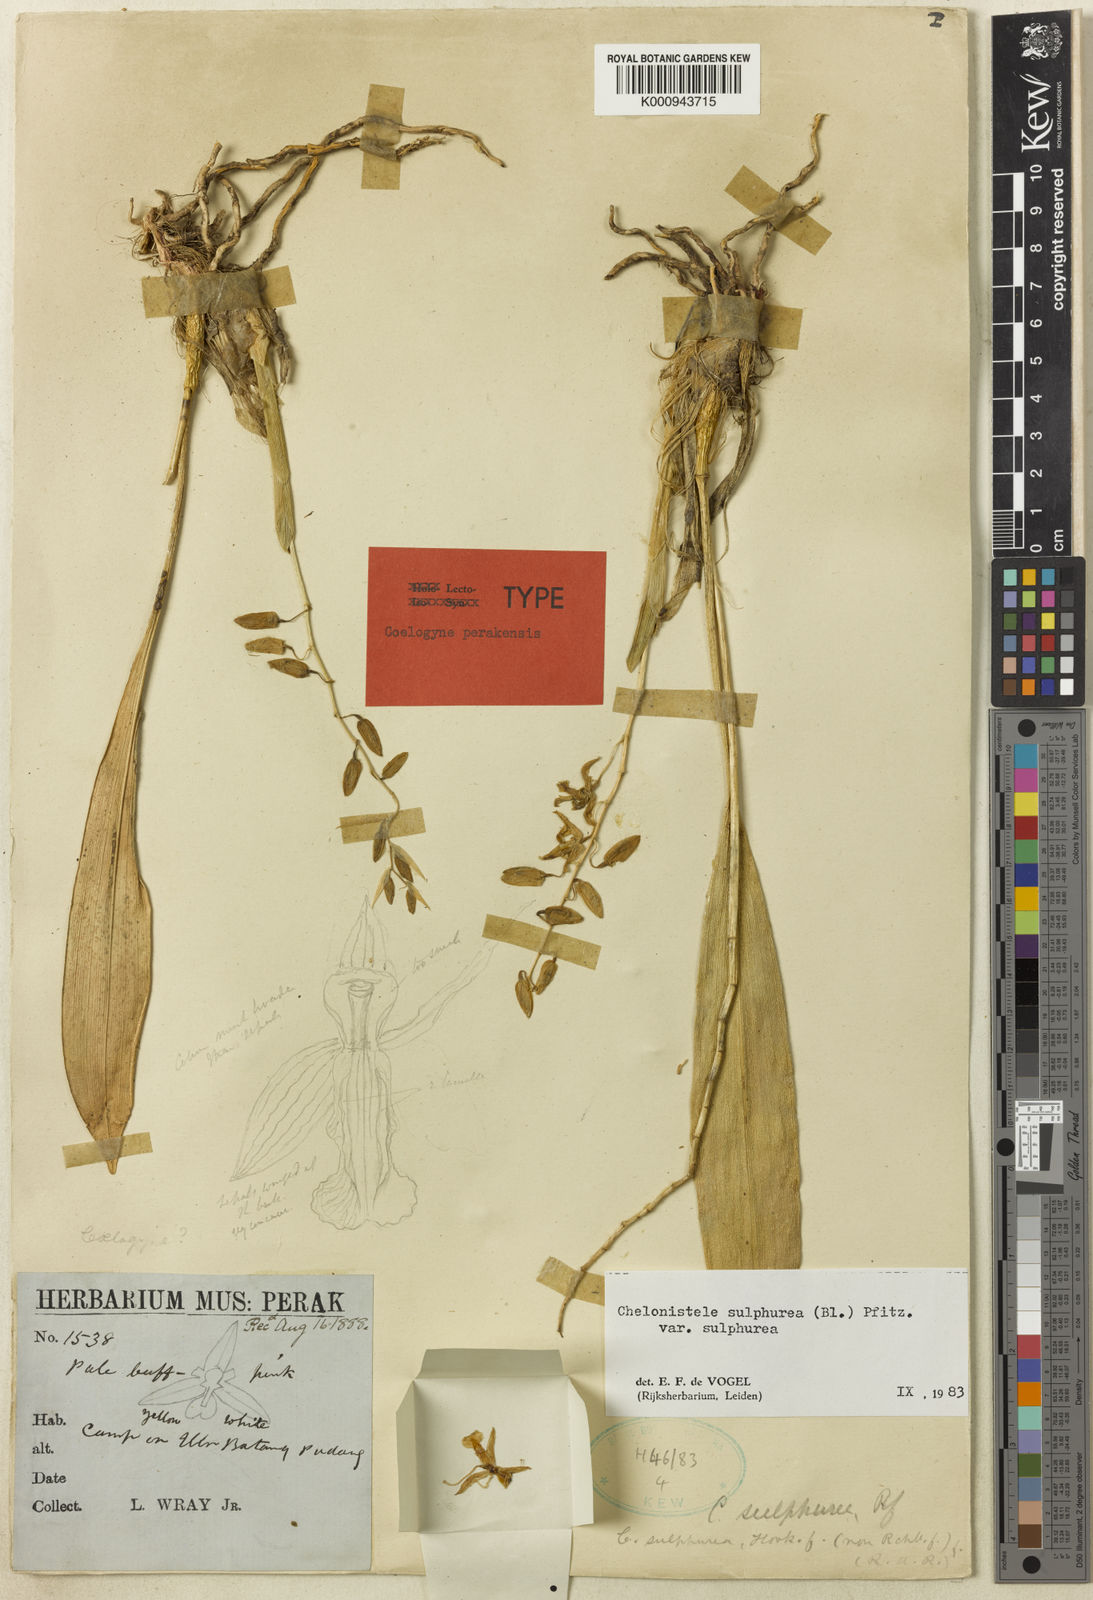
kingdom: Plantae
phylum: Tracheophyta
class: Liliopsida
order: Asparagales
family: Orchidaceae
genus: Coelogyne
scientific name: Coelogyne sulphurea
